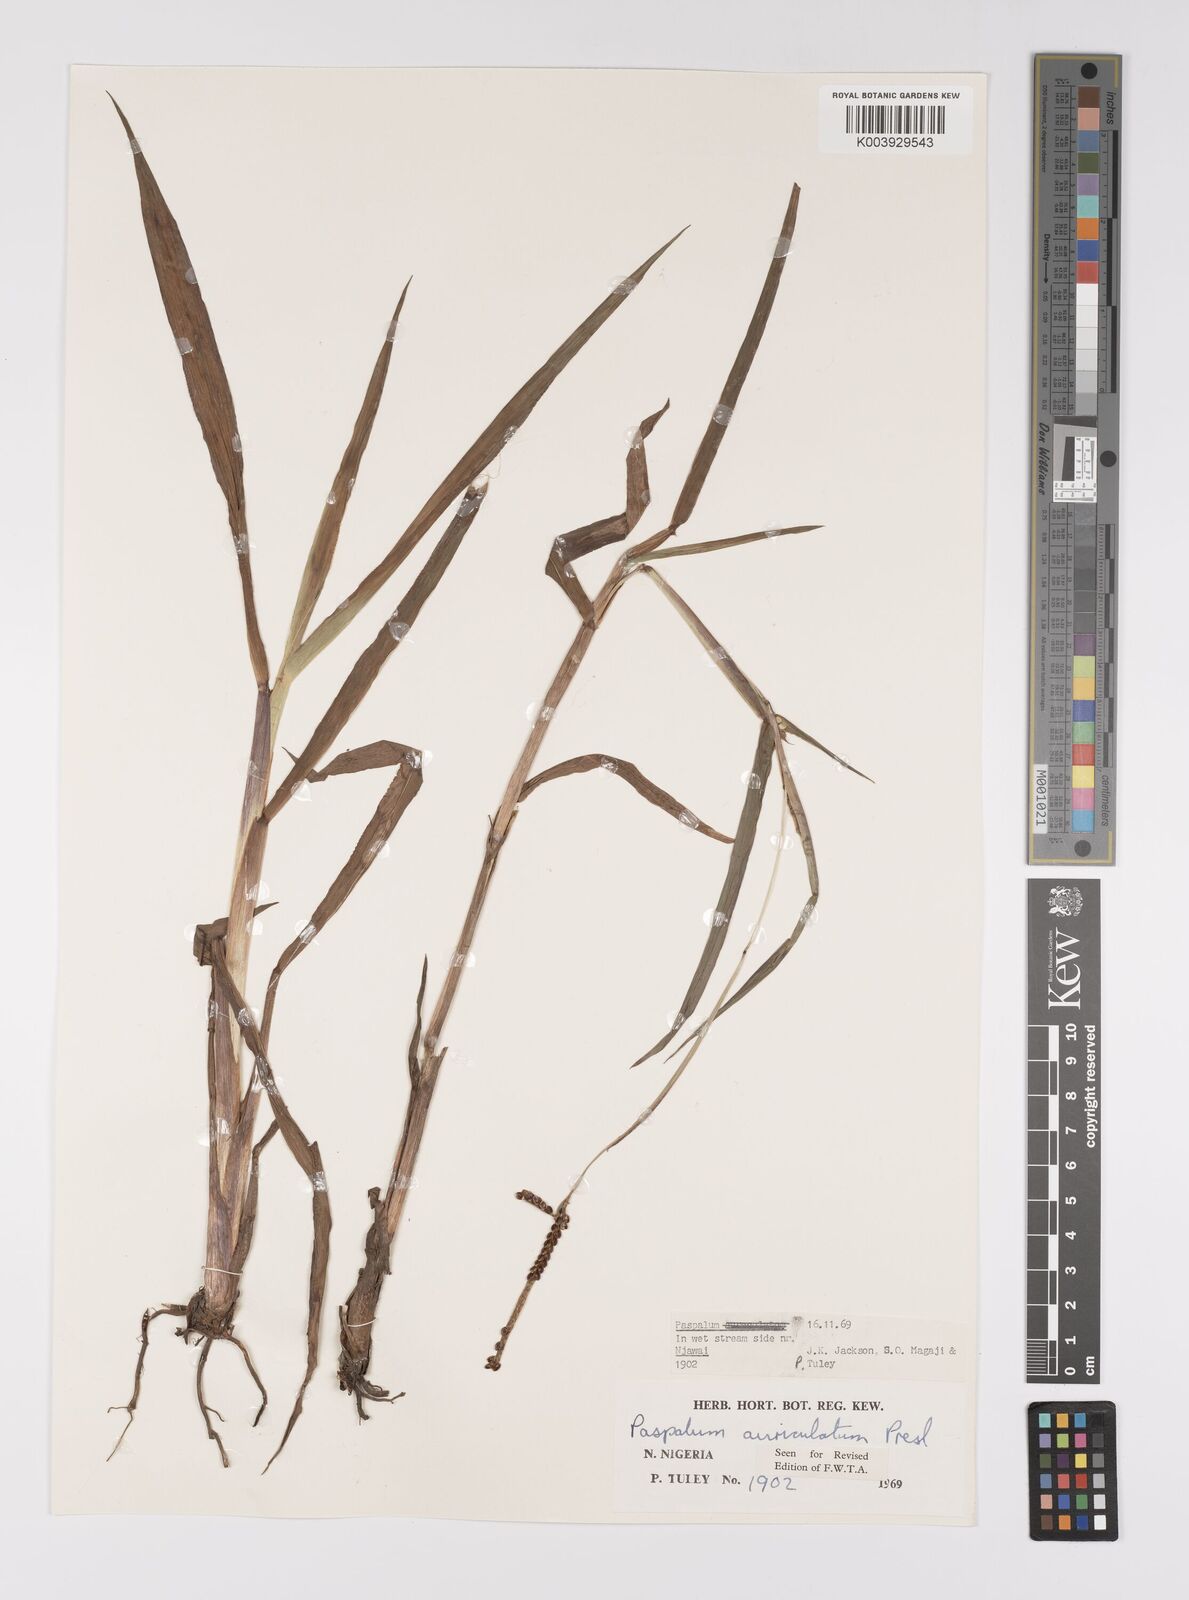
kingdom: Plantae
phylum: Tracheophyta
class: Liliopsida
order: Poales
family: Poaceae
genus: Paspalum
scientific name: Paspalum scrobiculatum
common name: Kodo millet
